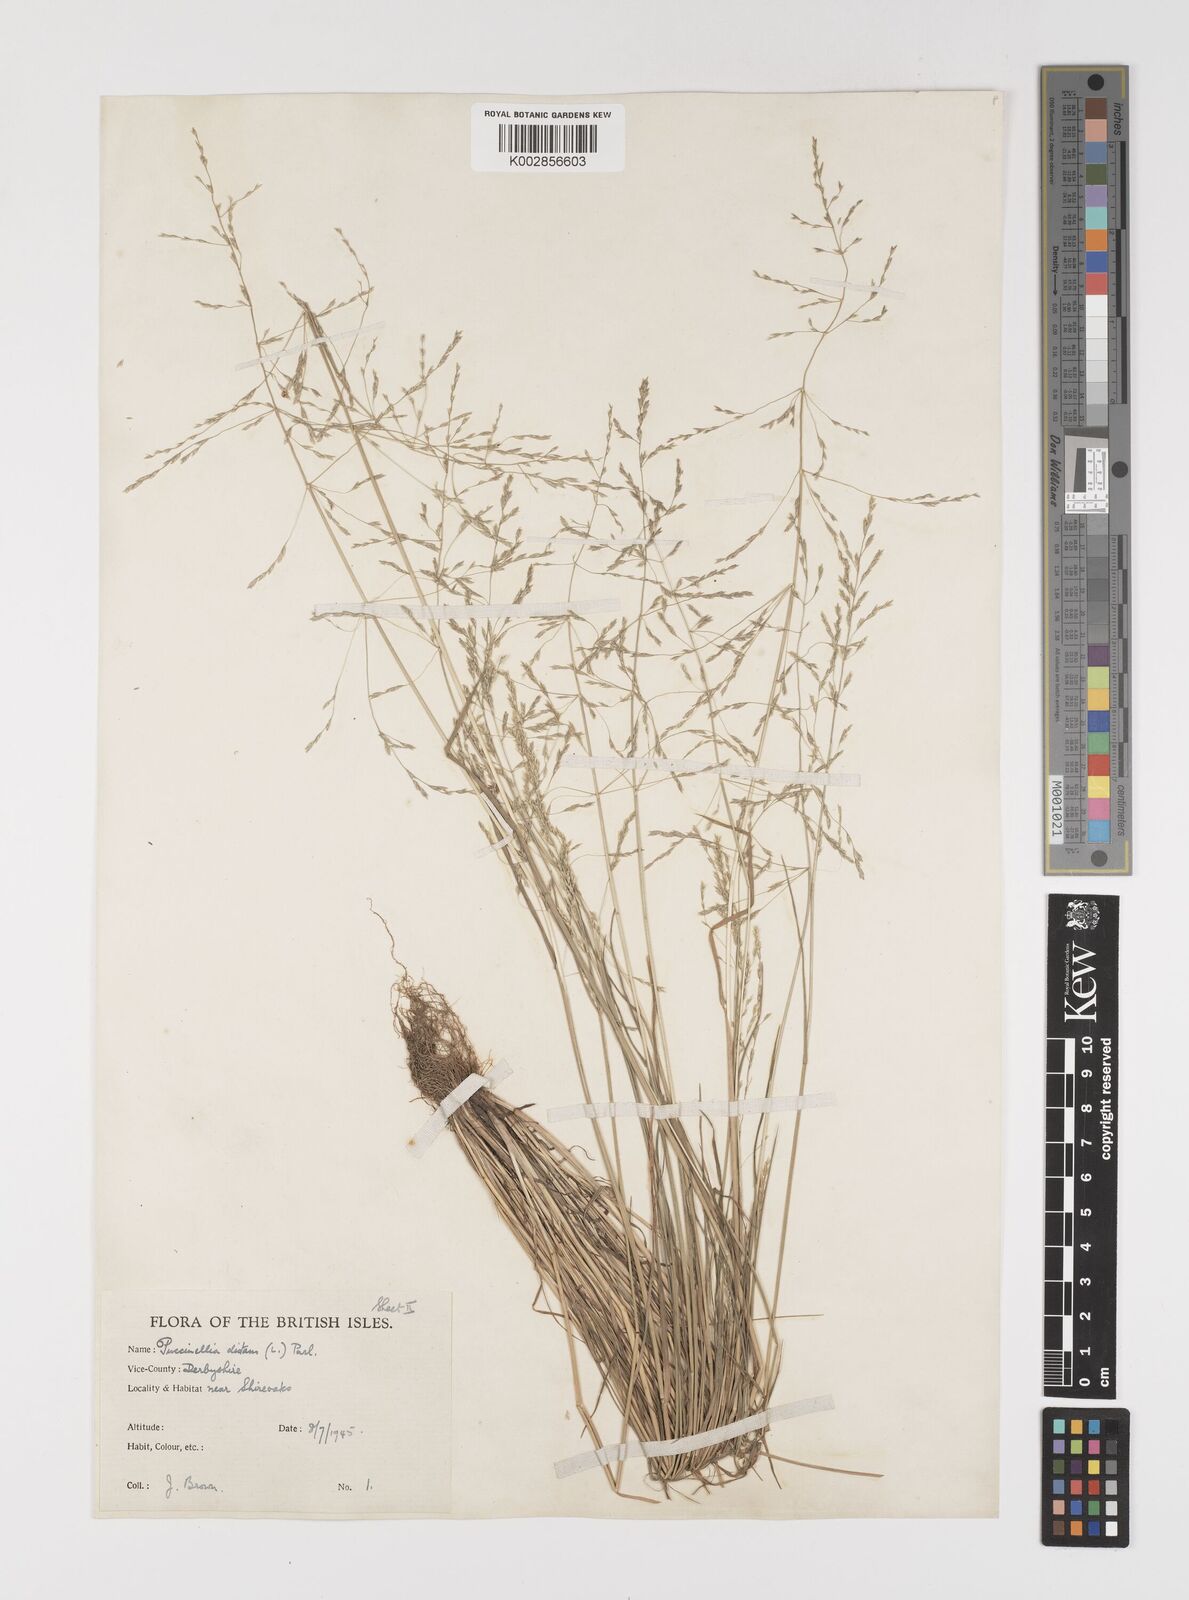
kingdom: Plantae
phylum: Tracheophyta
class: Liliopsida
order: Poales
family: Poaceae
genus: Puccinellia
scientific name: Puccinellia distans
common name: Weeping alkaligrass
